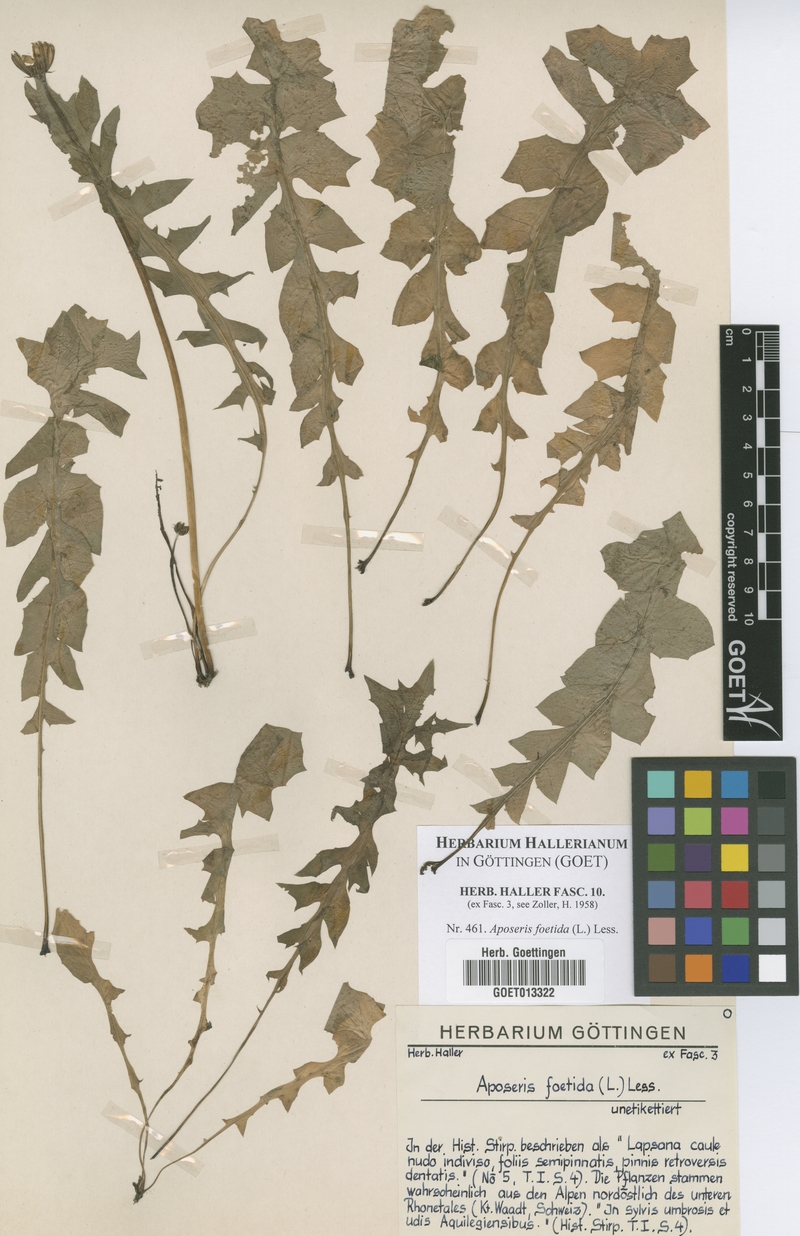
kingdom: Plantae
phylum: Tracheophyta
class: Magnoliopsida
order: Asterales
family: Asteraceae
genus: Aposeris
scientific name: Aposeris foetida
